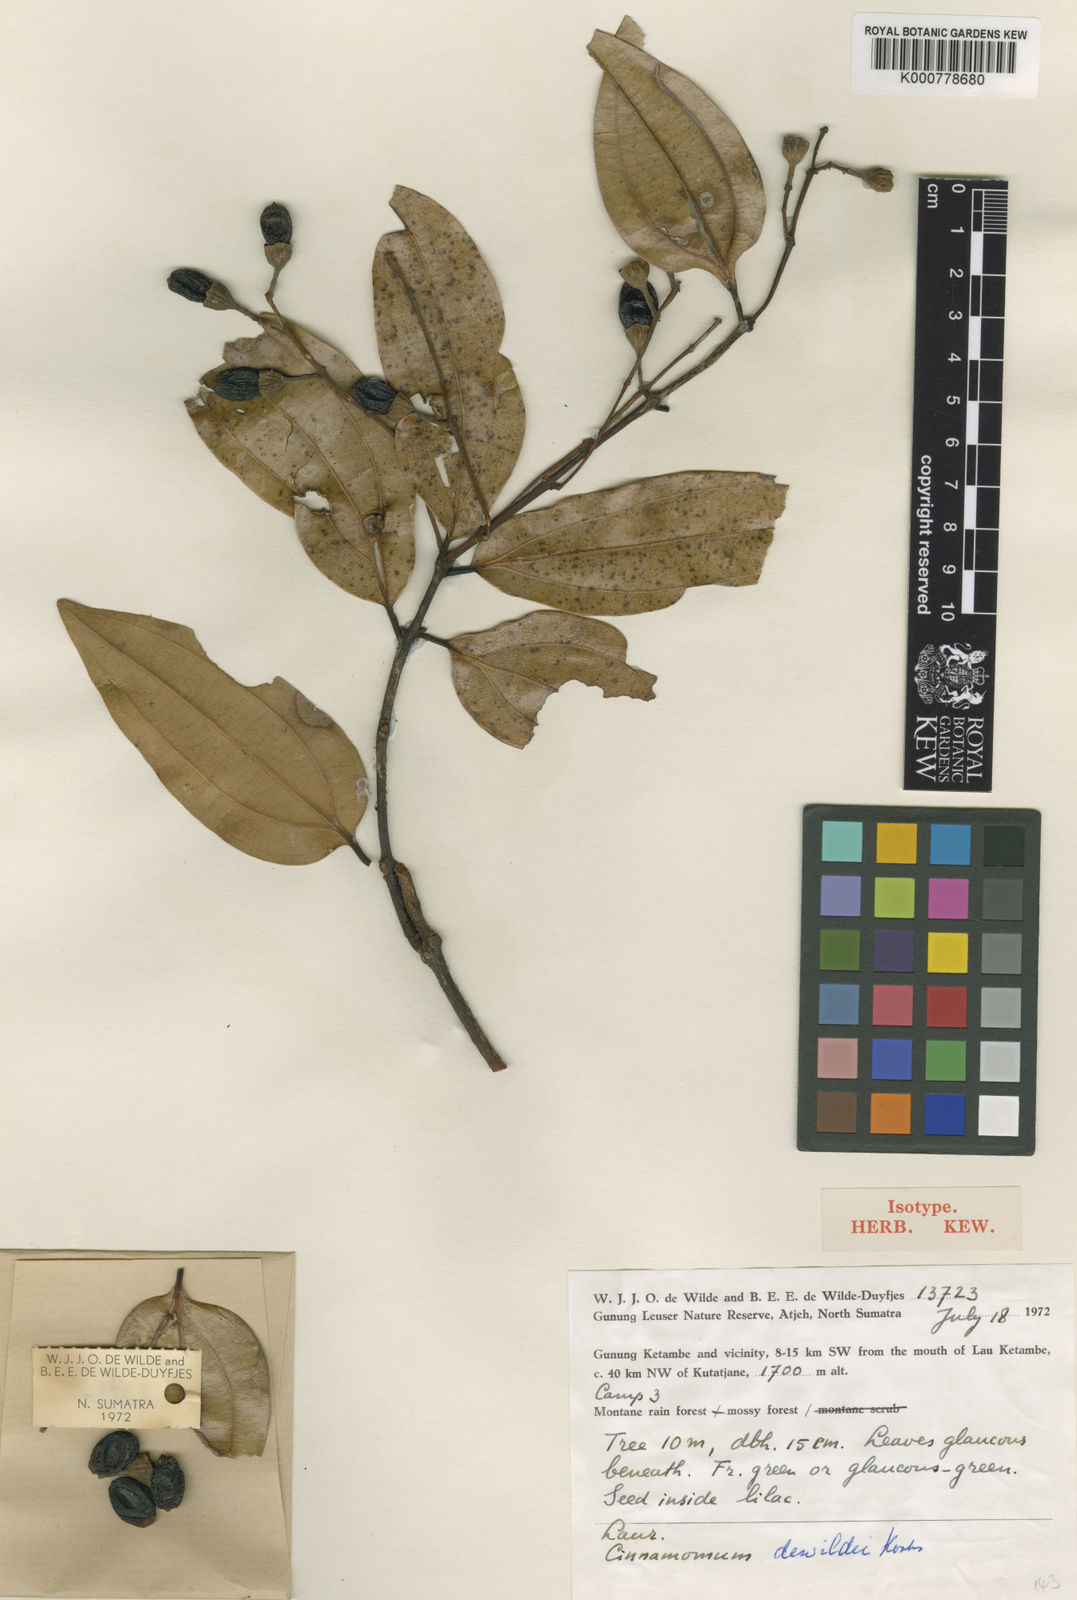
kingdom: Plantae
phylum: Tracheophyta
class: Magnoliopsida
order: Laurales
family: Lauraceae
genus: Cinnamomum
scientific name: Cinnamomum
